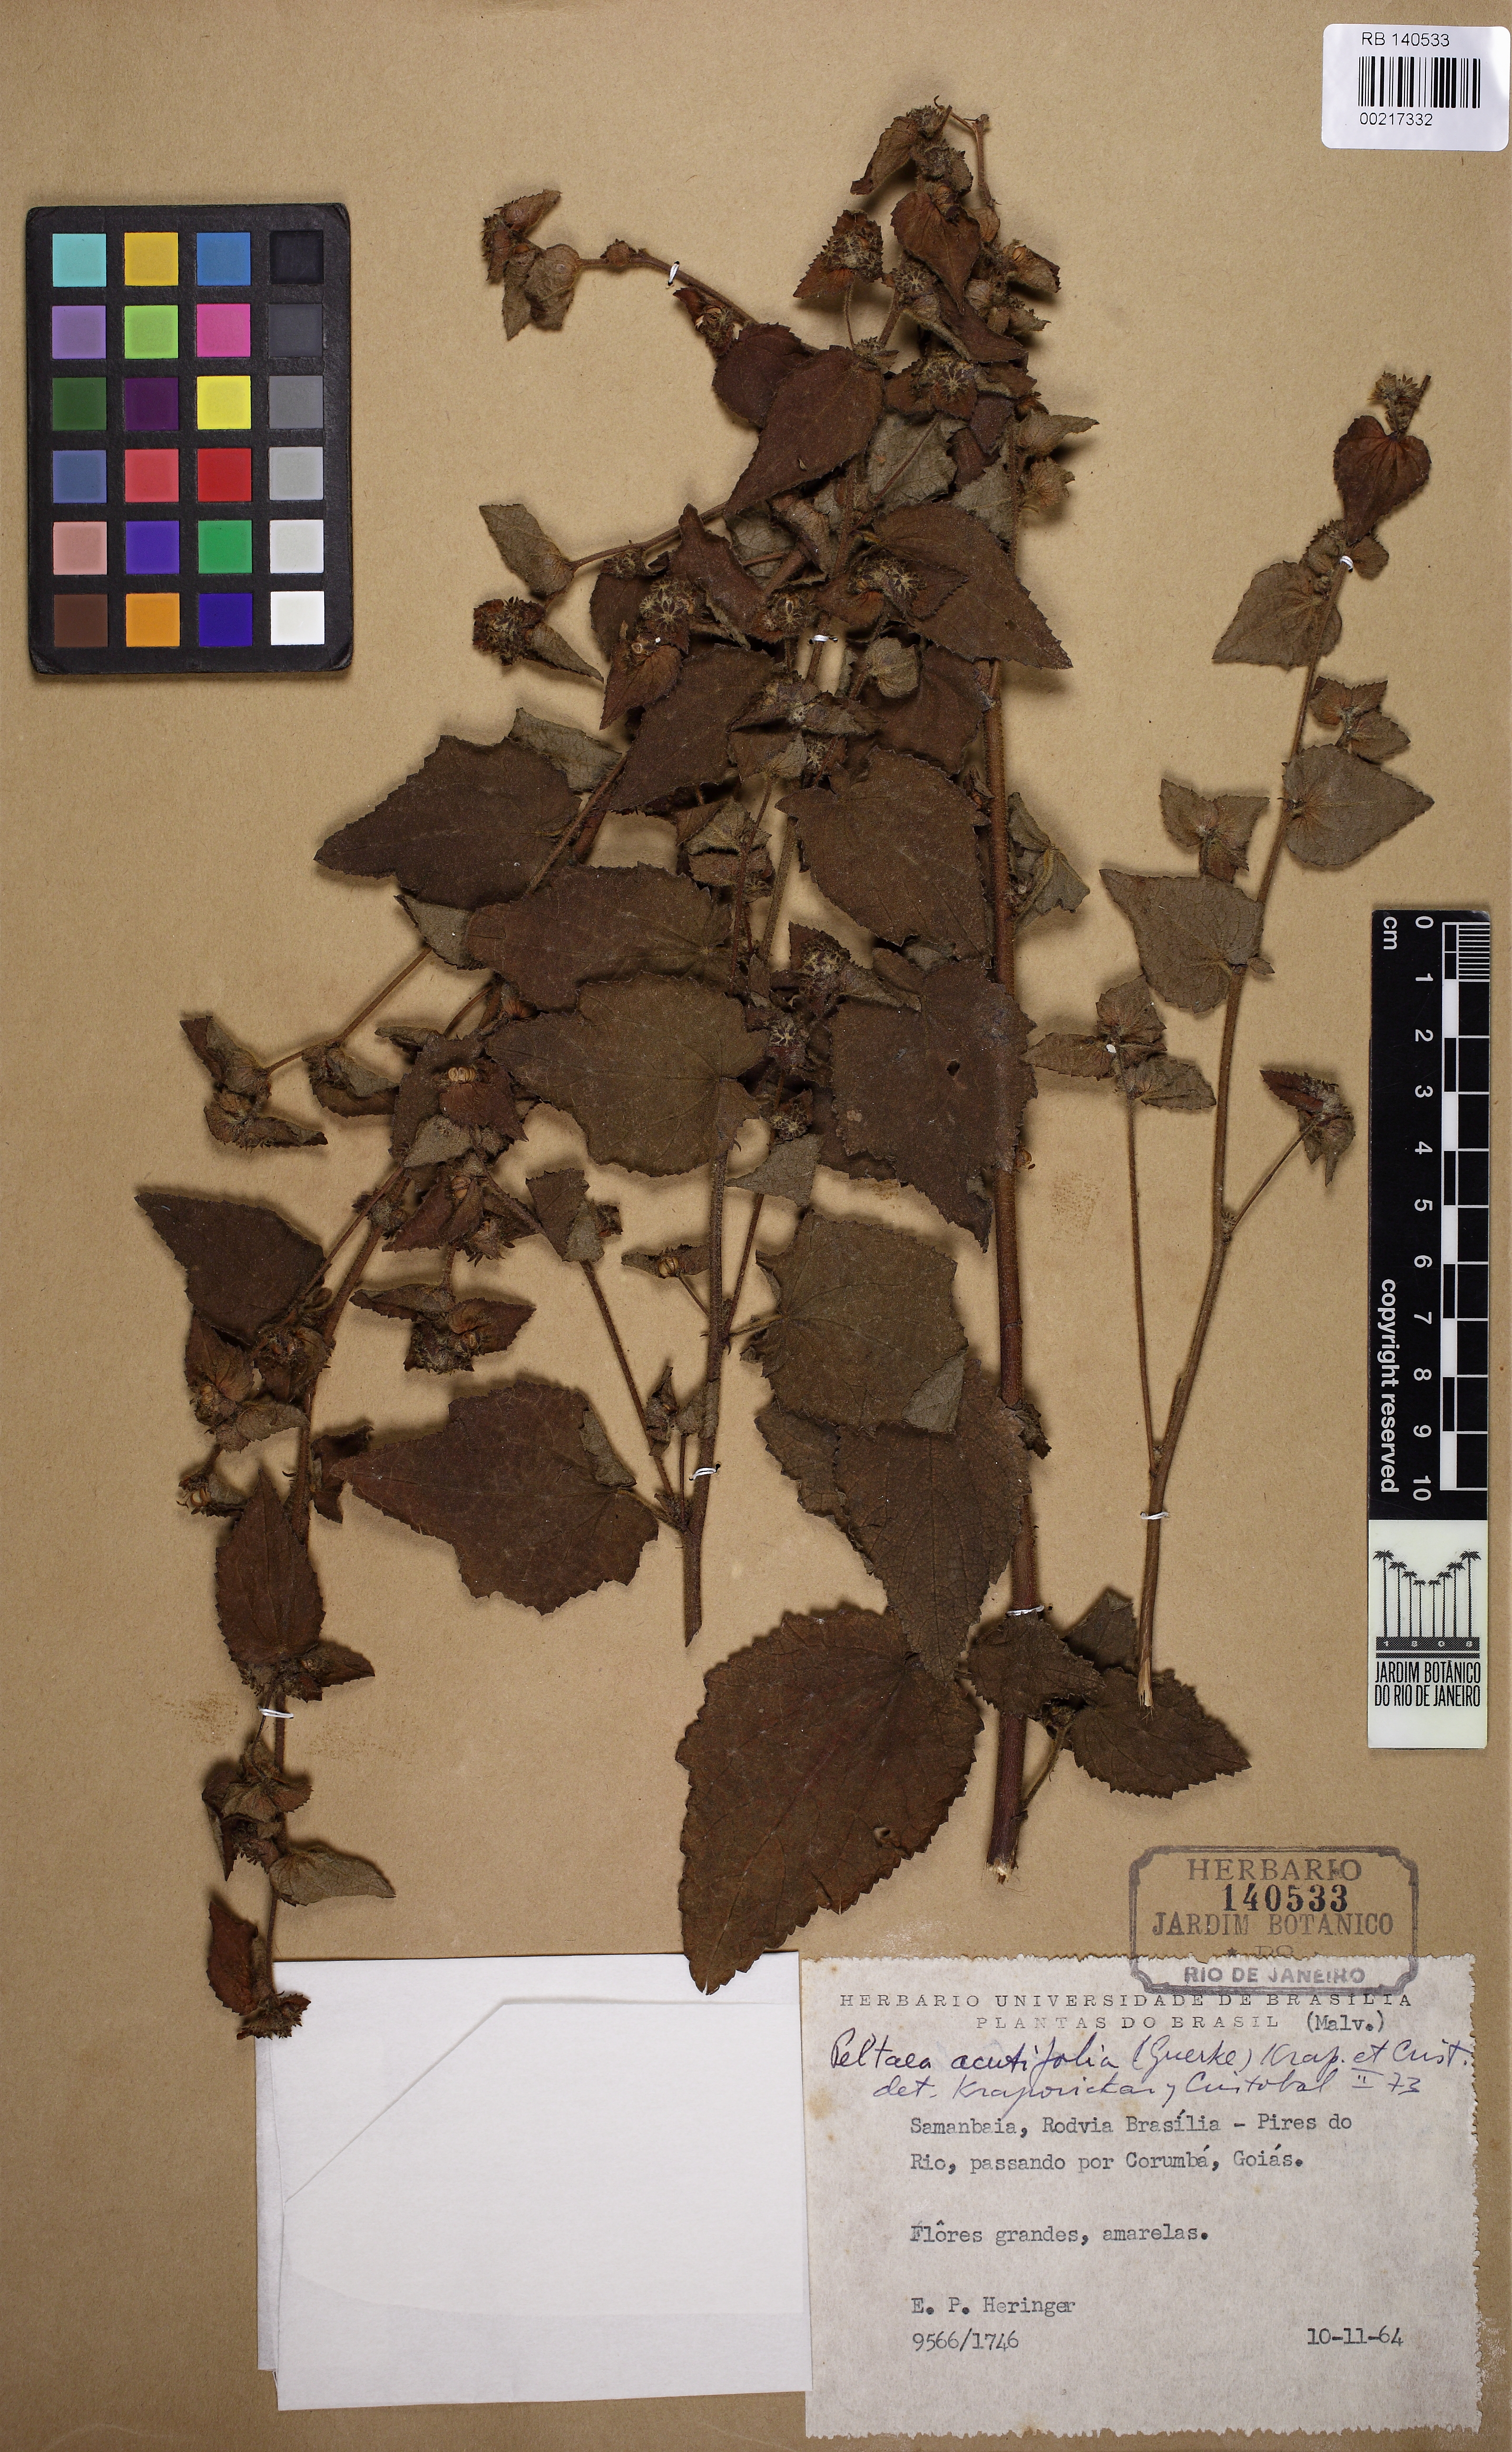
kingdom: Plantae
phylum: Tracheophyta
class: Magnoliopsida
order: Malvales
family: Malvaceae
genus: Peltaea
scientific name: Peltaea obsita
